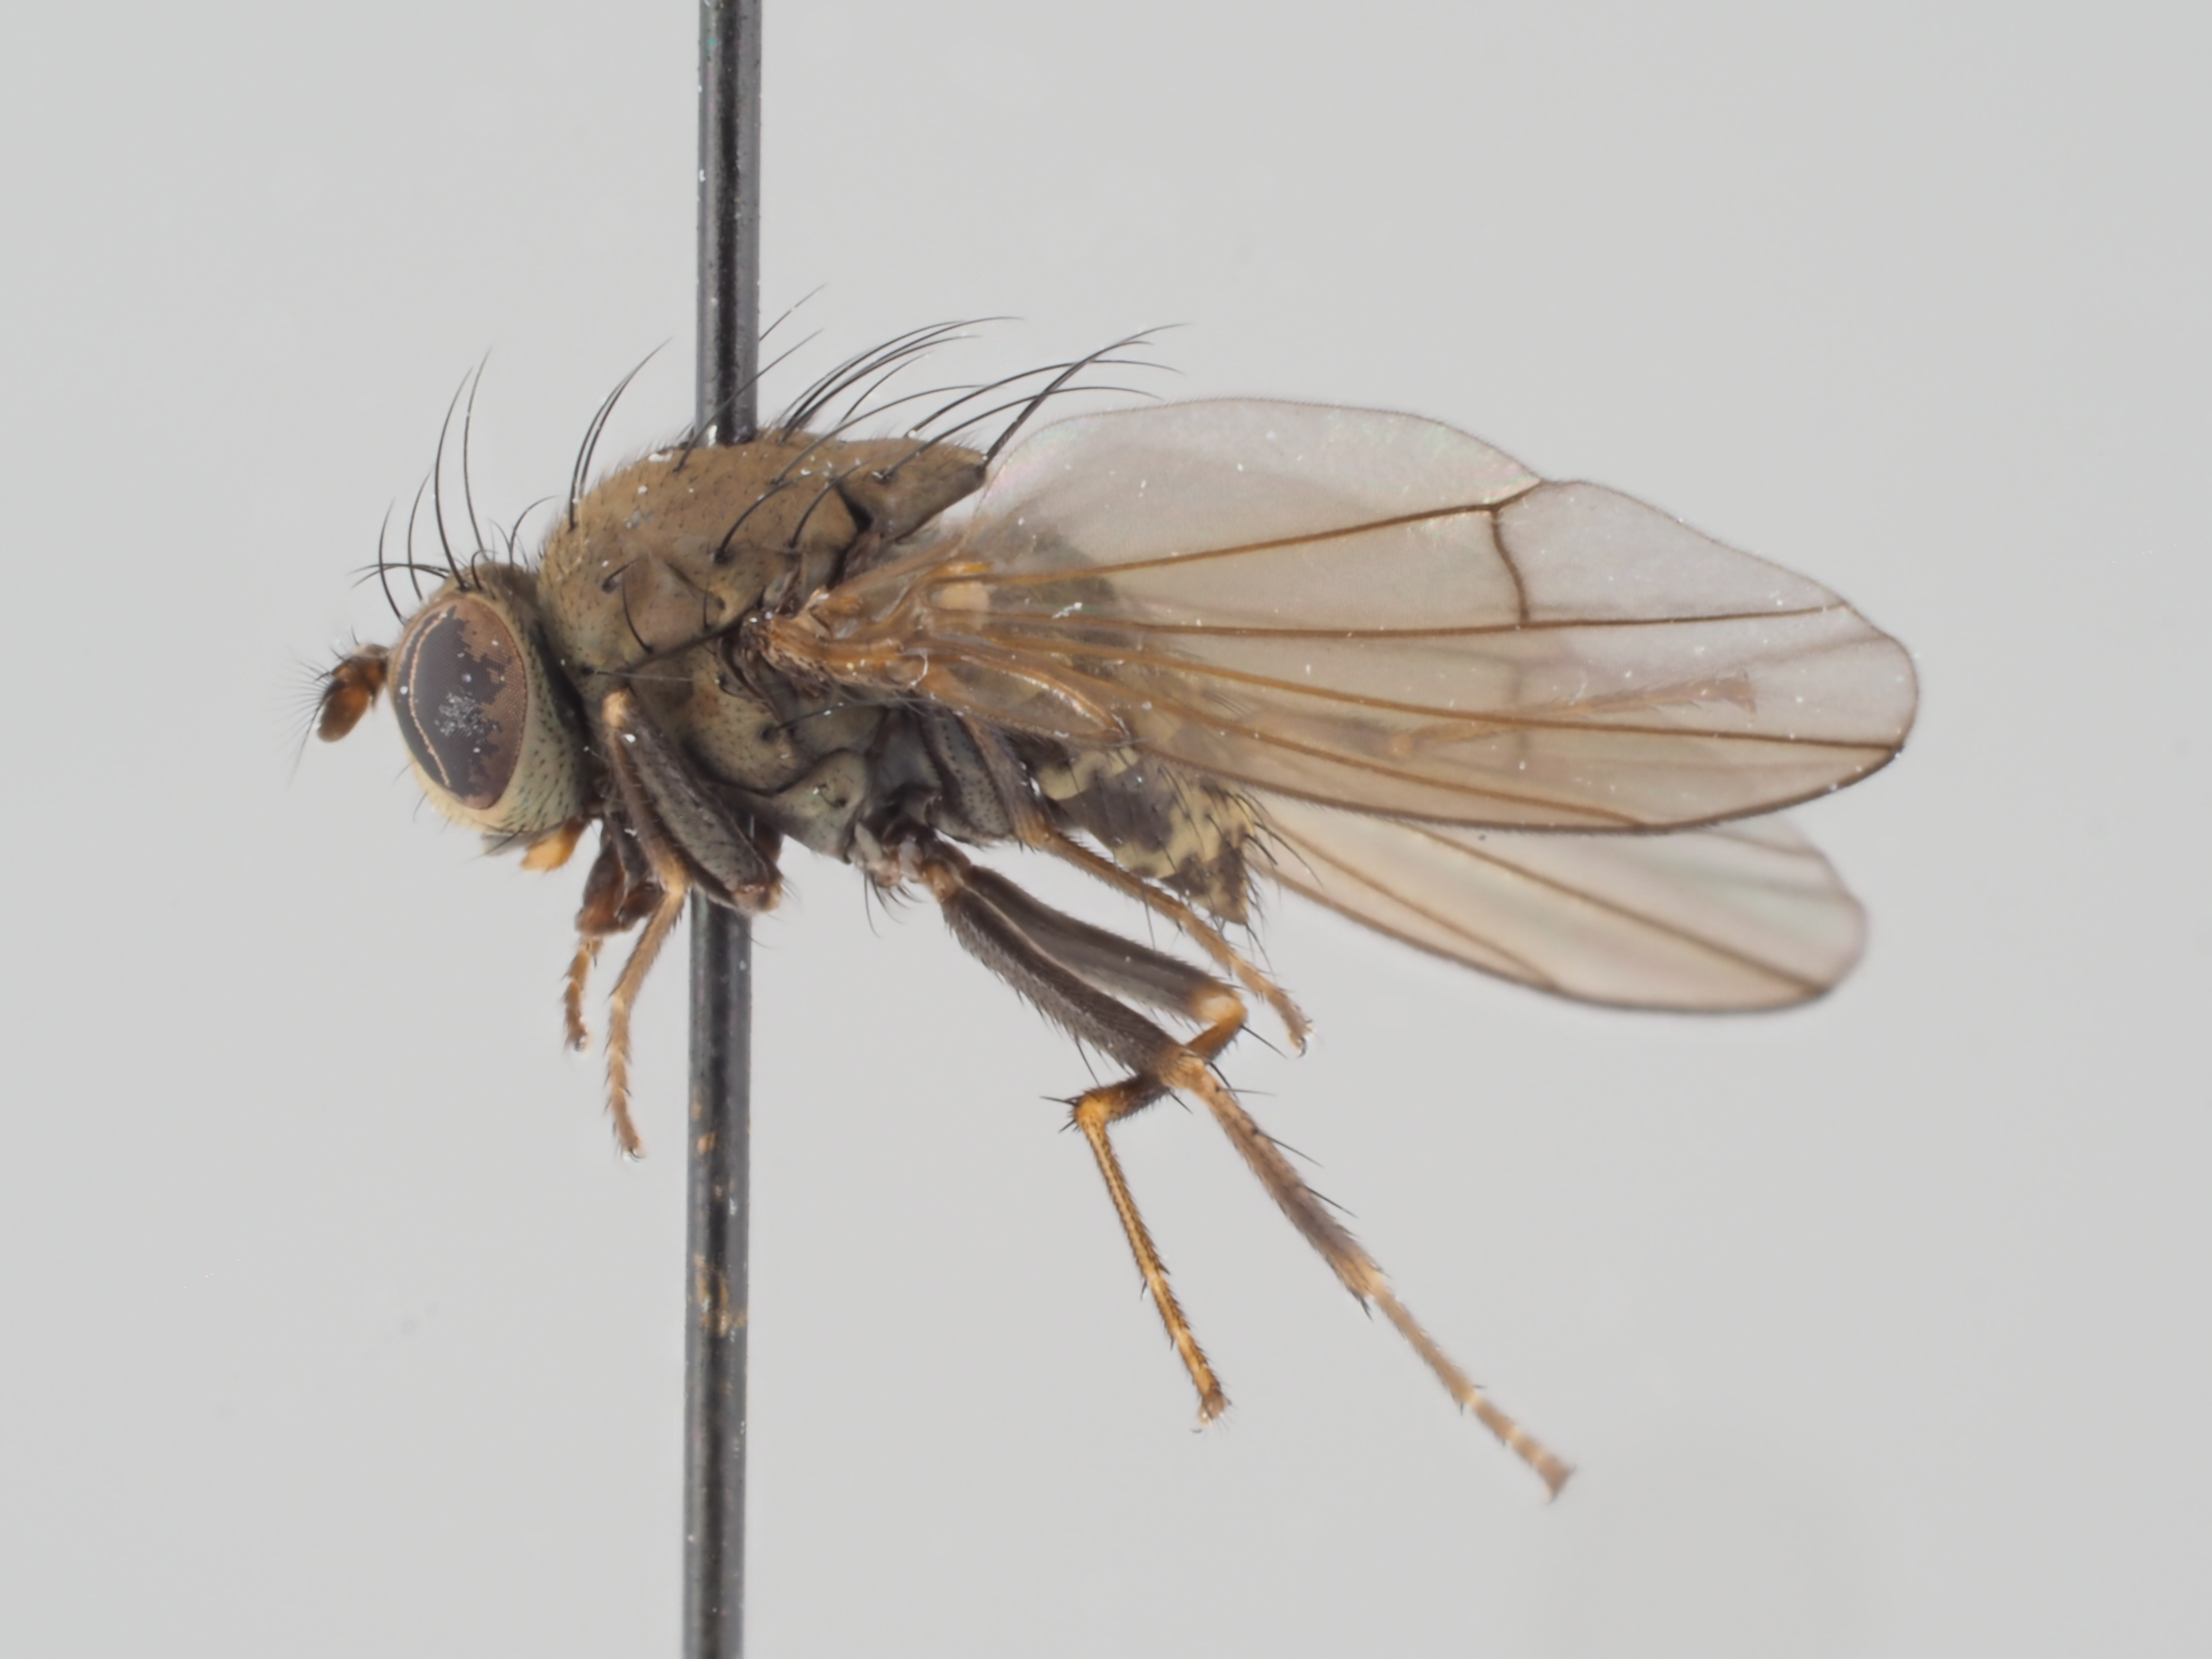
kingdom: Animalia
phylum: Arthropoda
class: Insecta
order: Diptera
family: Ephydridae
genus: Notiphila
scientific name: Notiphila graecula
